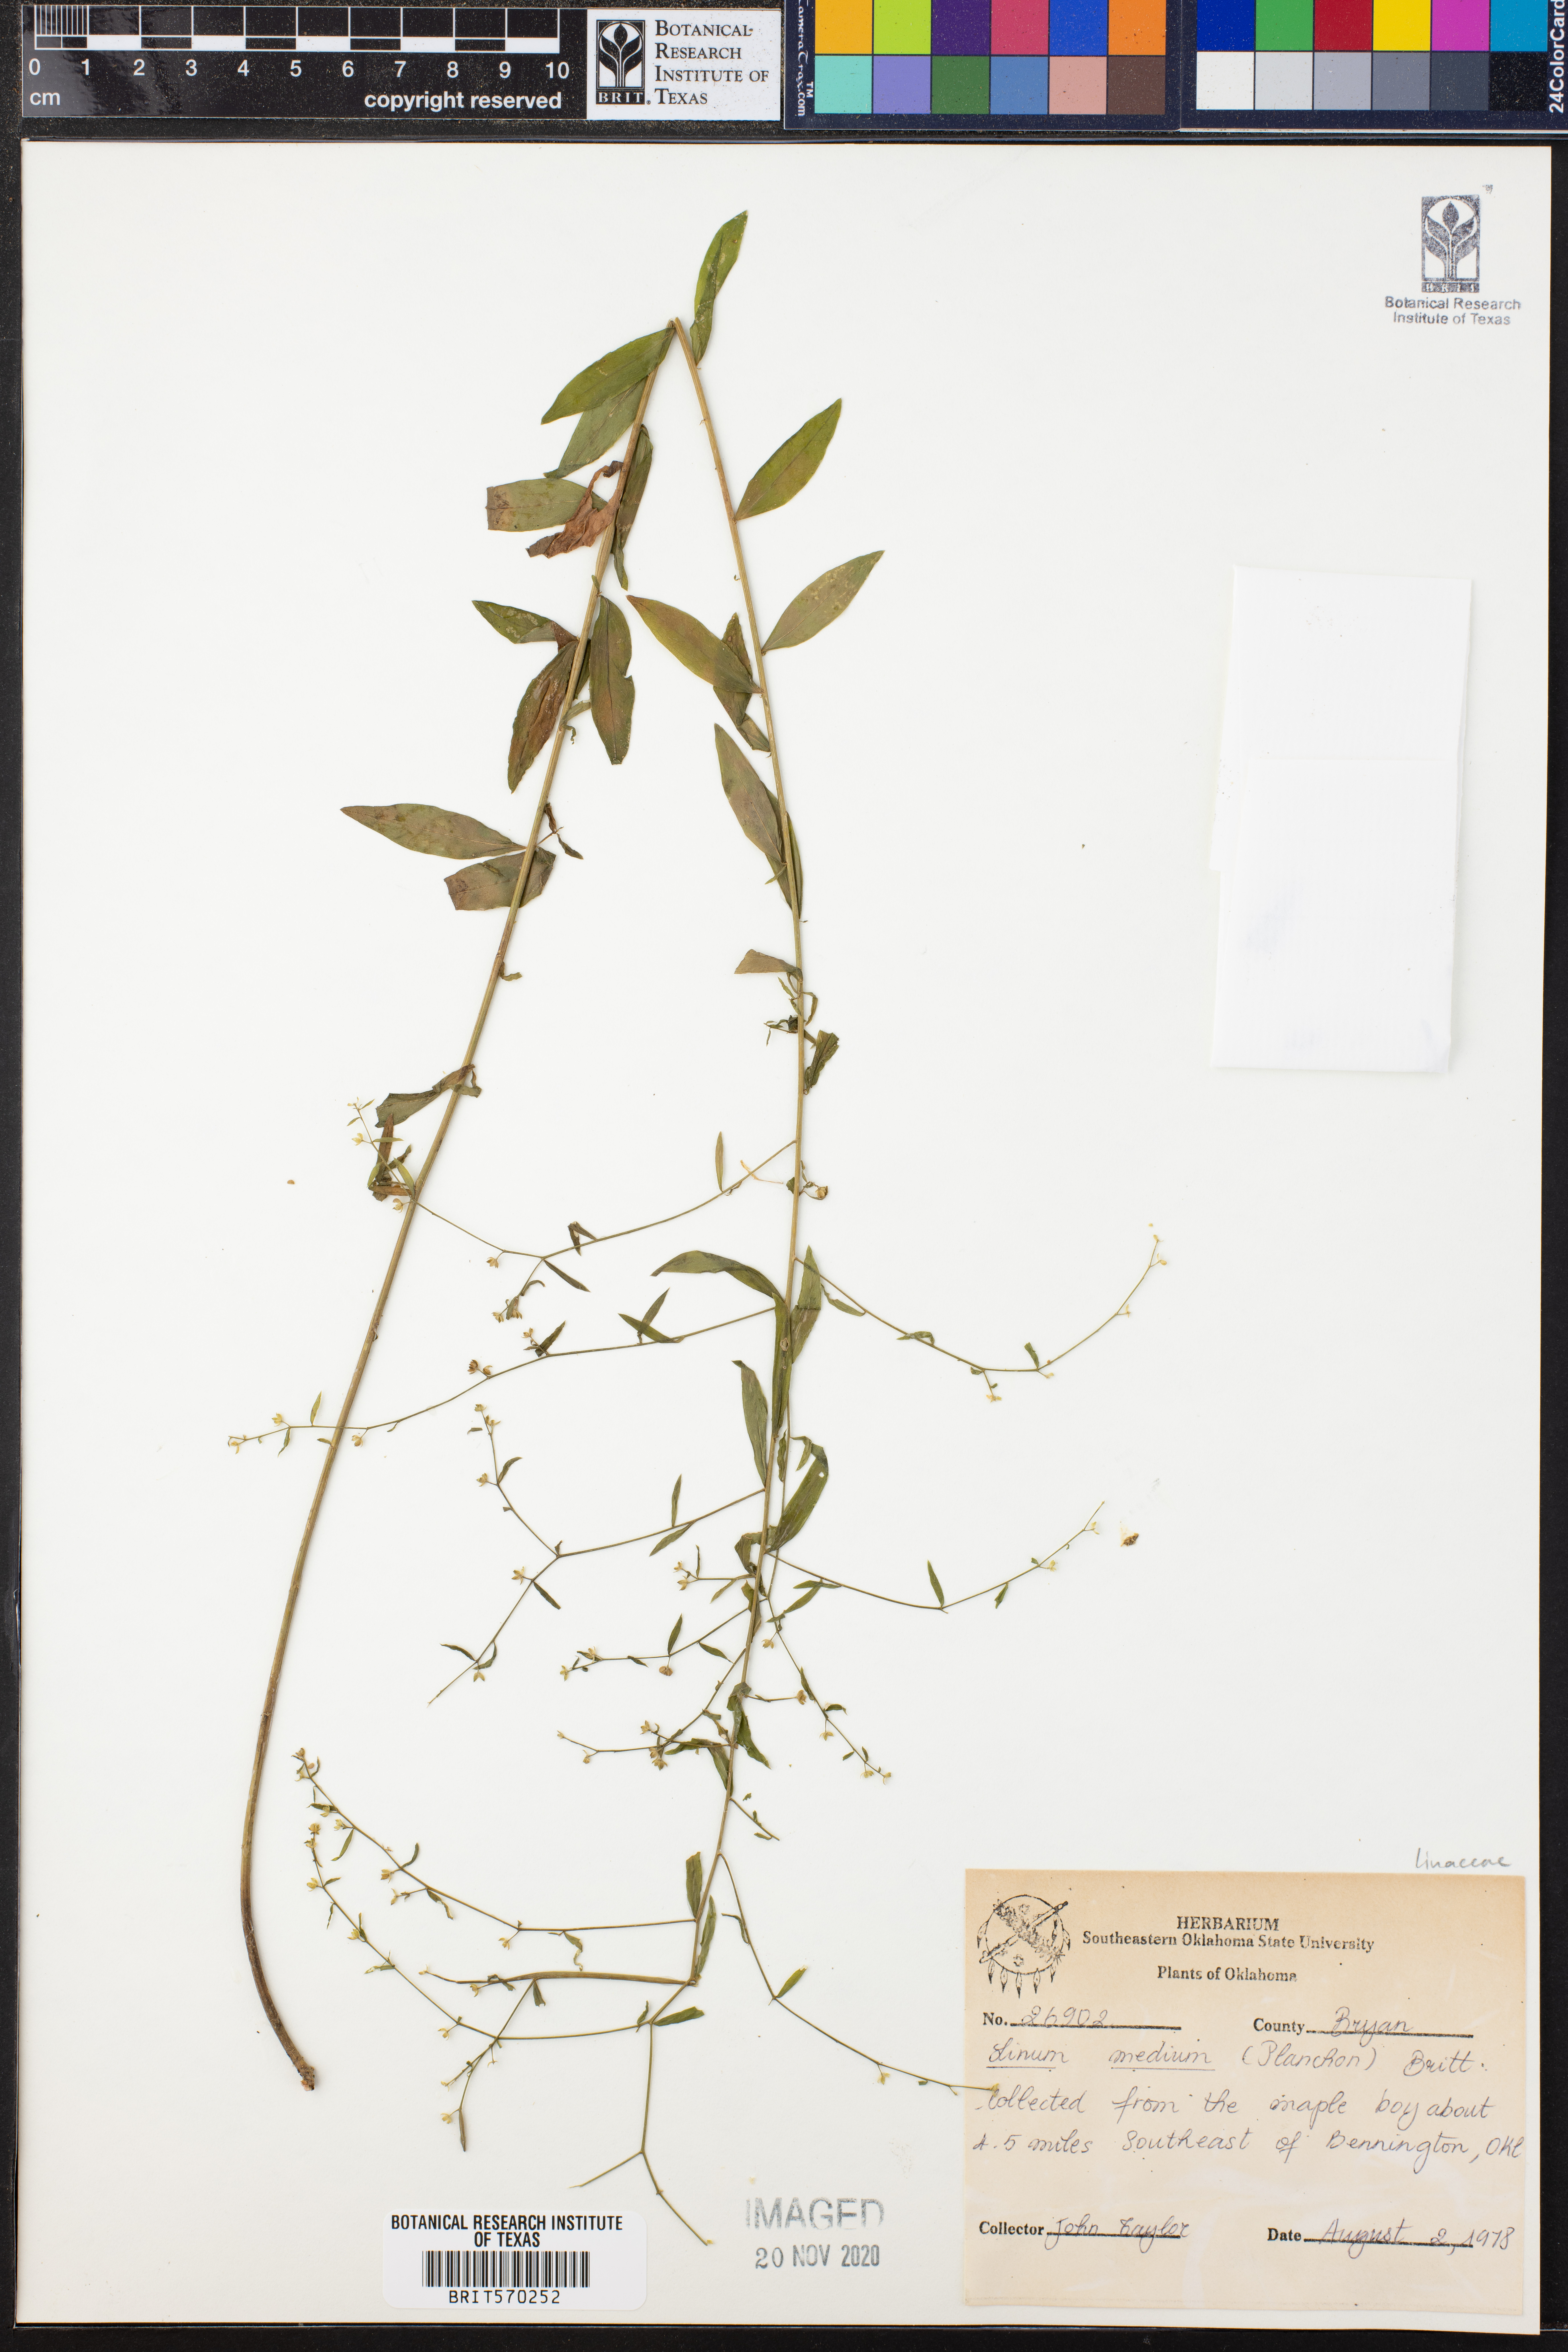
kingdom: Plantae
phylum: Tracheophyta
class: Magnoliopsida
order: Malpighiales
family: Linaceae
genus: Linum
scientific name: Linum medium
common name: Stiff yellow flax
